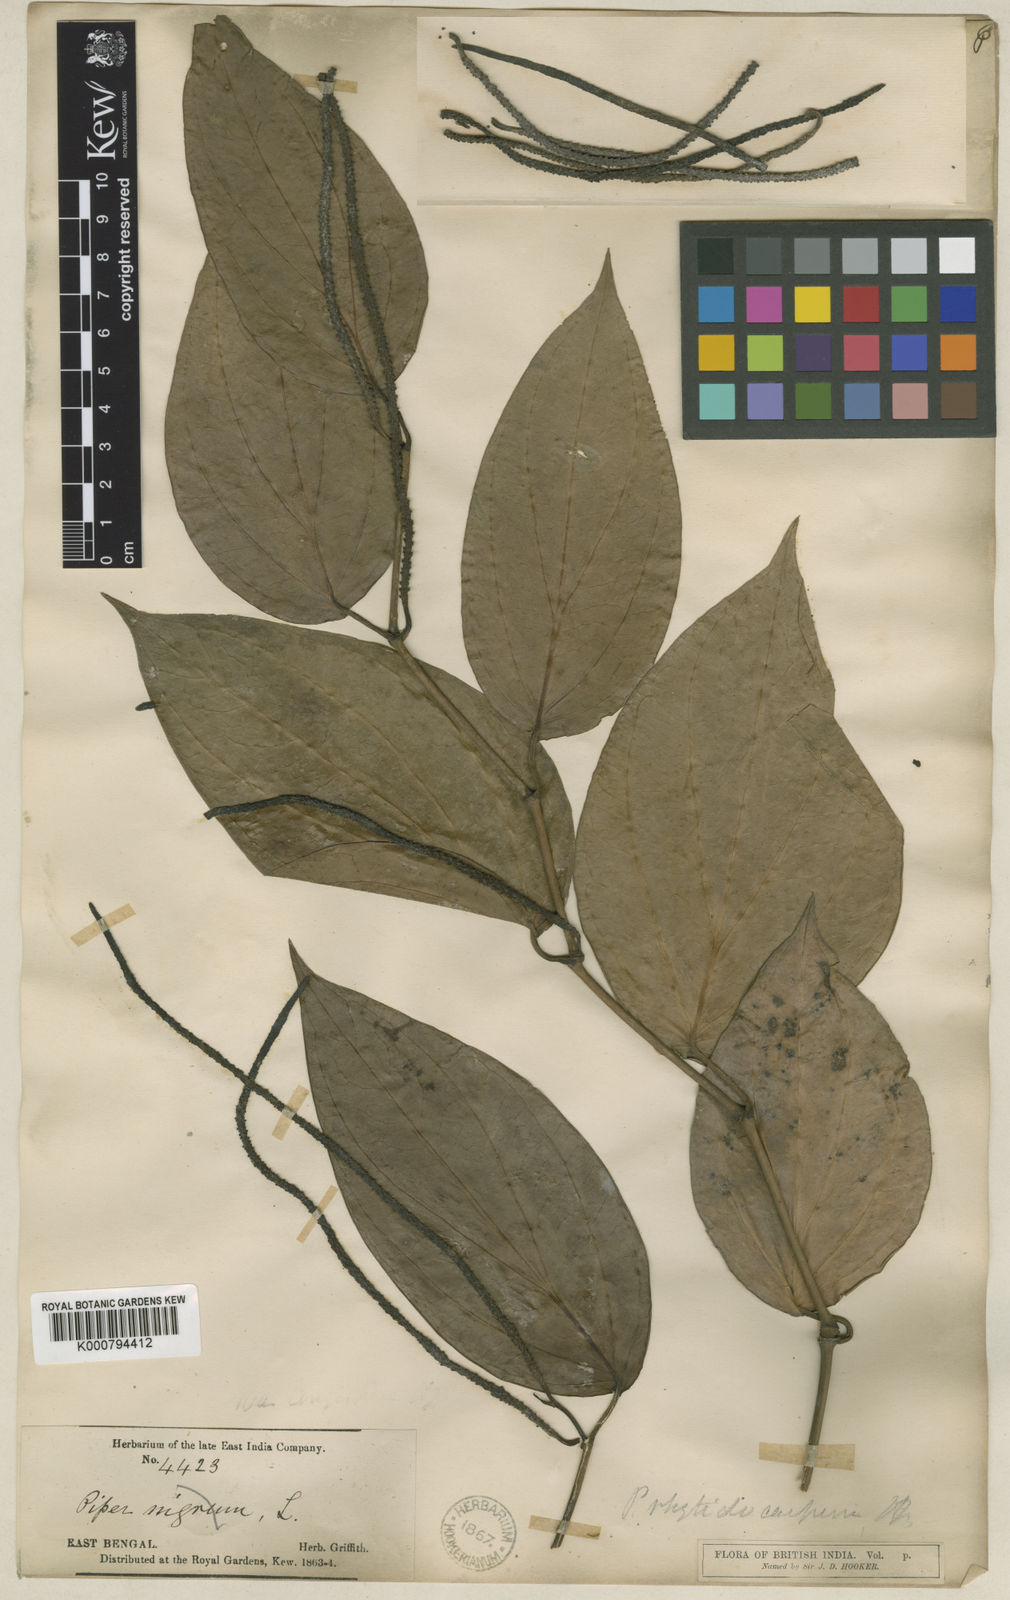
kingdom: Plantae
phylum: Tracheophyta
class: Magnoliopsida
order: Piperales
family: Piperaceae
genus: Piper
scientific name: Piper leptostachyum
